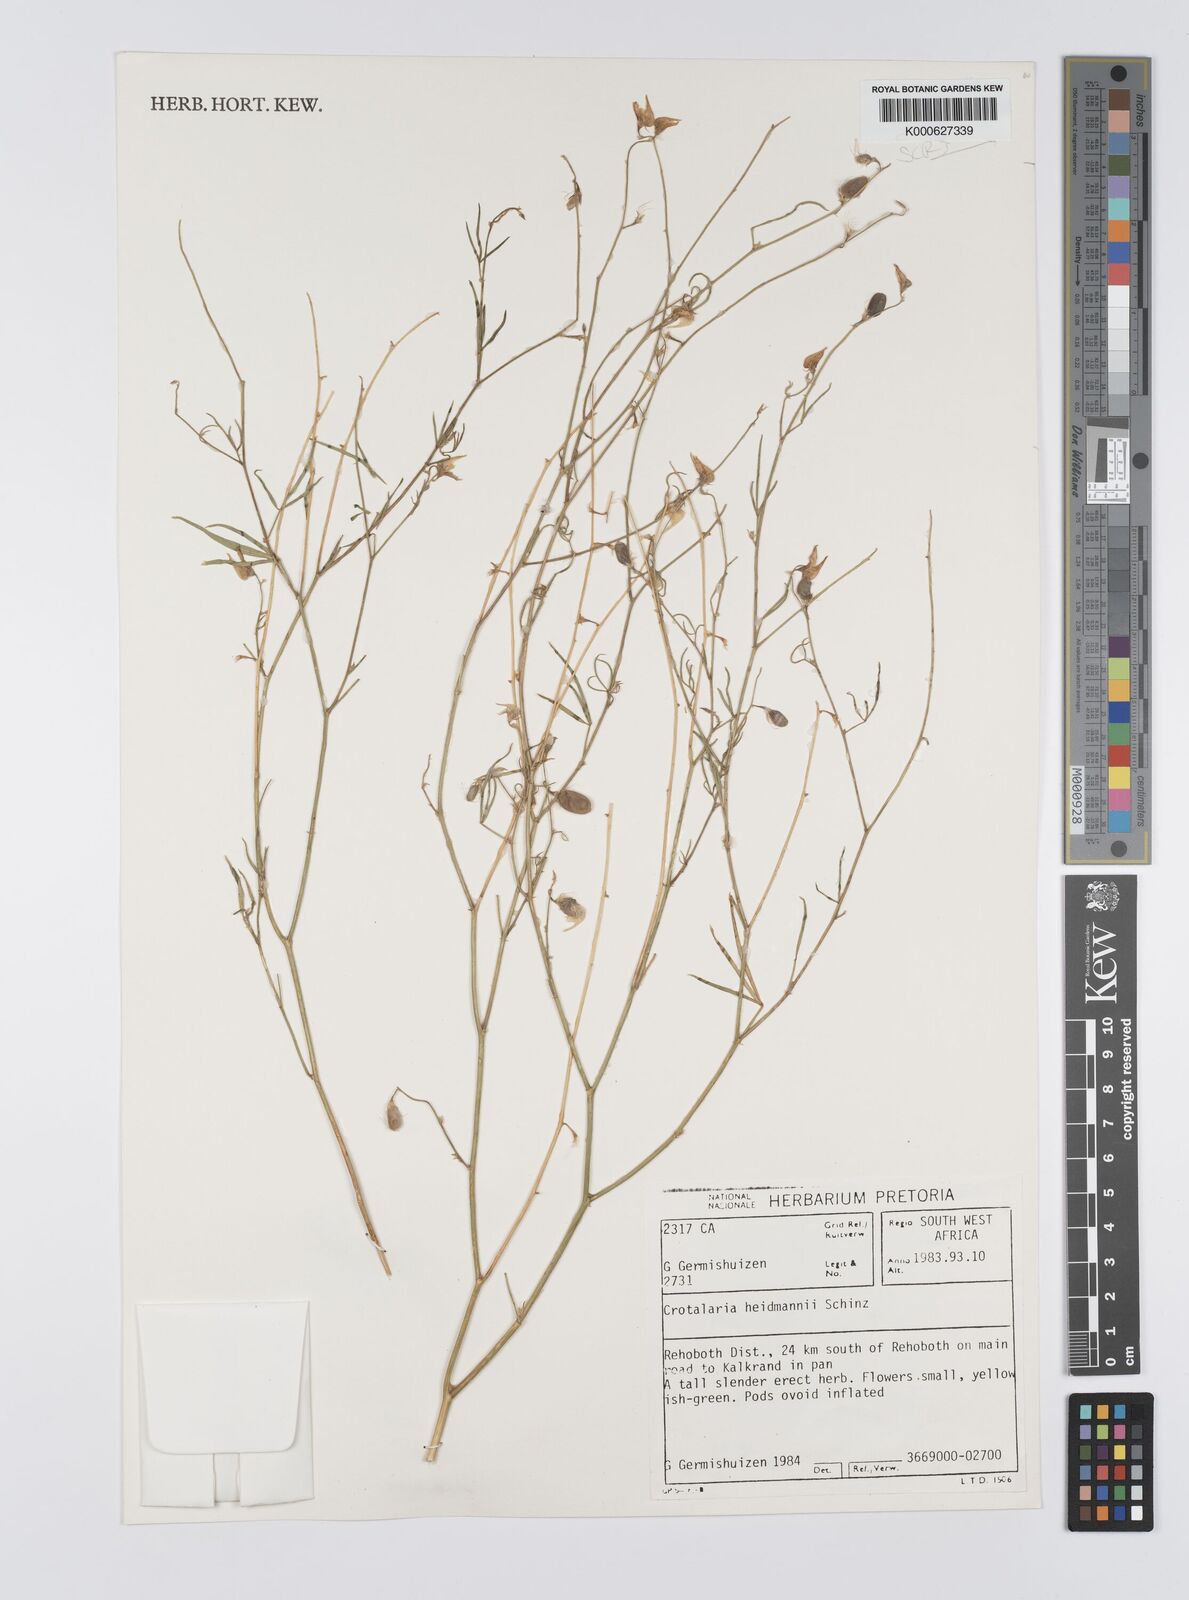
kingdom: Plantae
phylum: Tracheophyta
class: Magnoliopsida
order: Fabales
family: Fabaceae
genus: Crotalaria
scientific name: Crotalaria heidmannii
